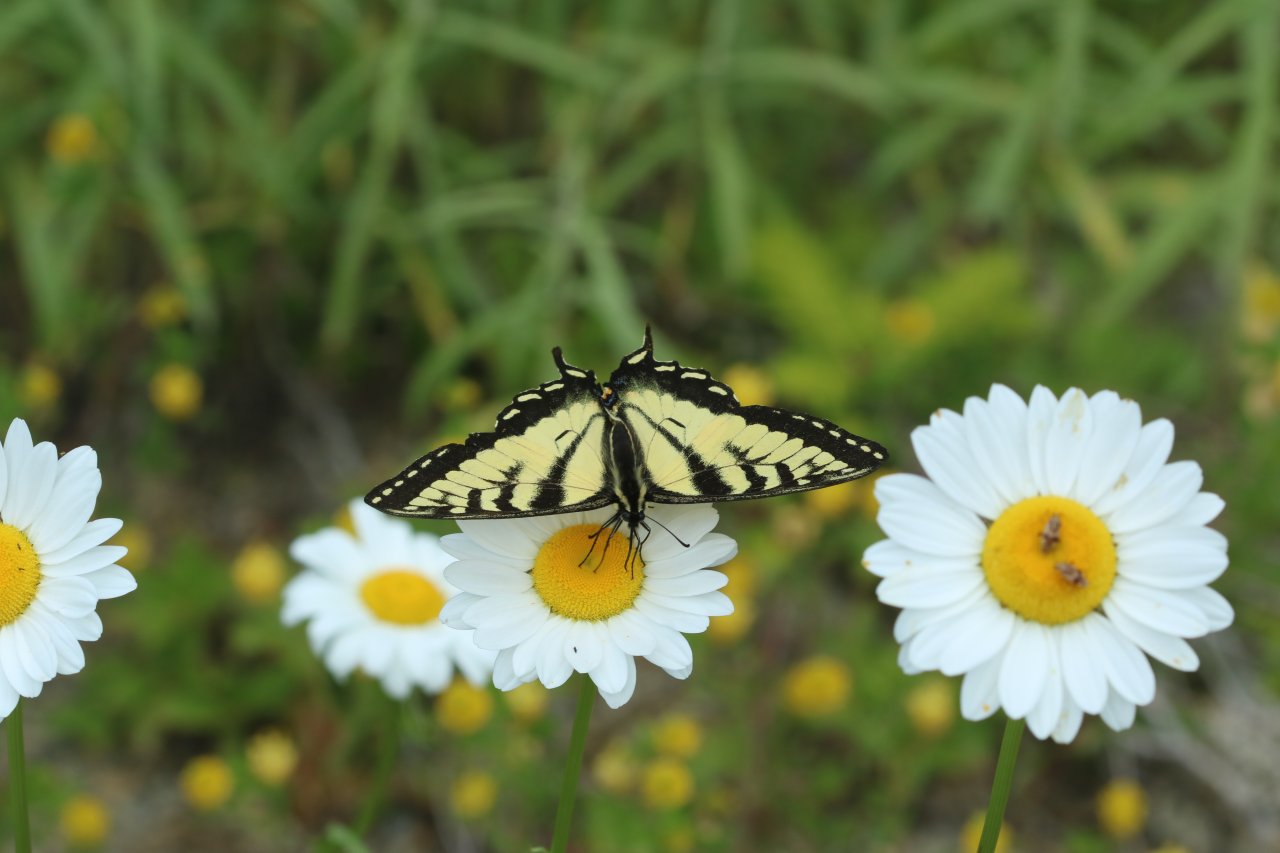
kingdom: Animalia
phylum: Arthropoda
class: Insecta
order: Lepidoptera
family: Papilionidae
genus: Pterourus
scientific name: Pterourus canadensis
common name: Canadian Tiger Swallowtail
